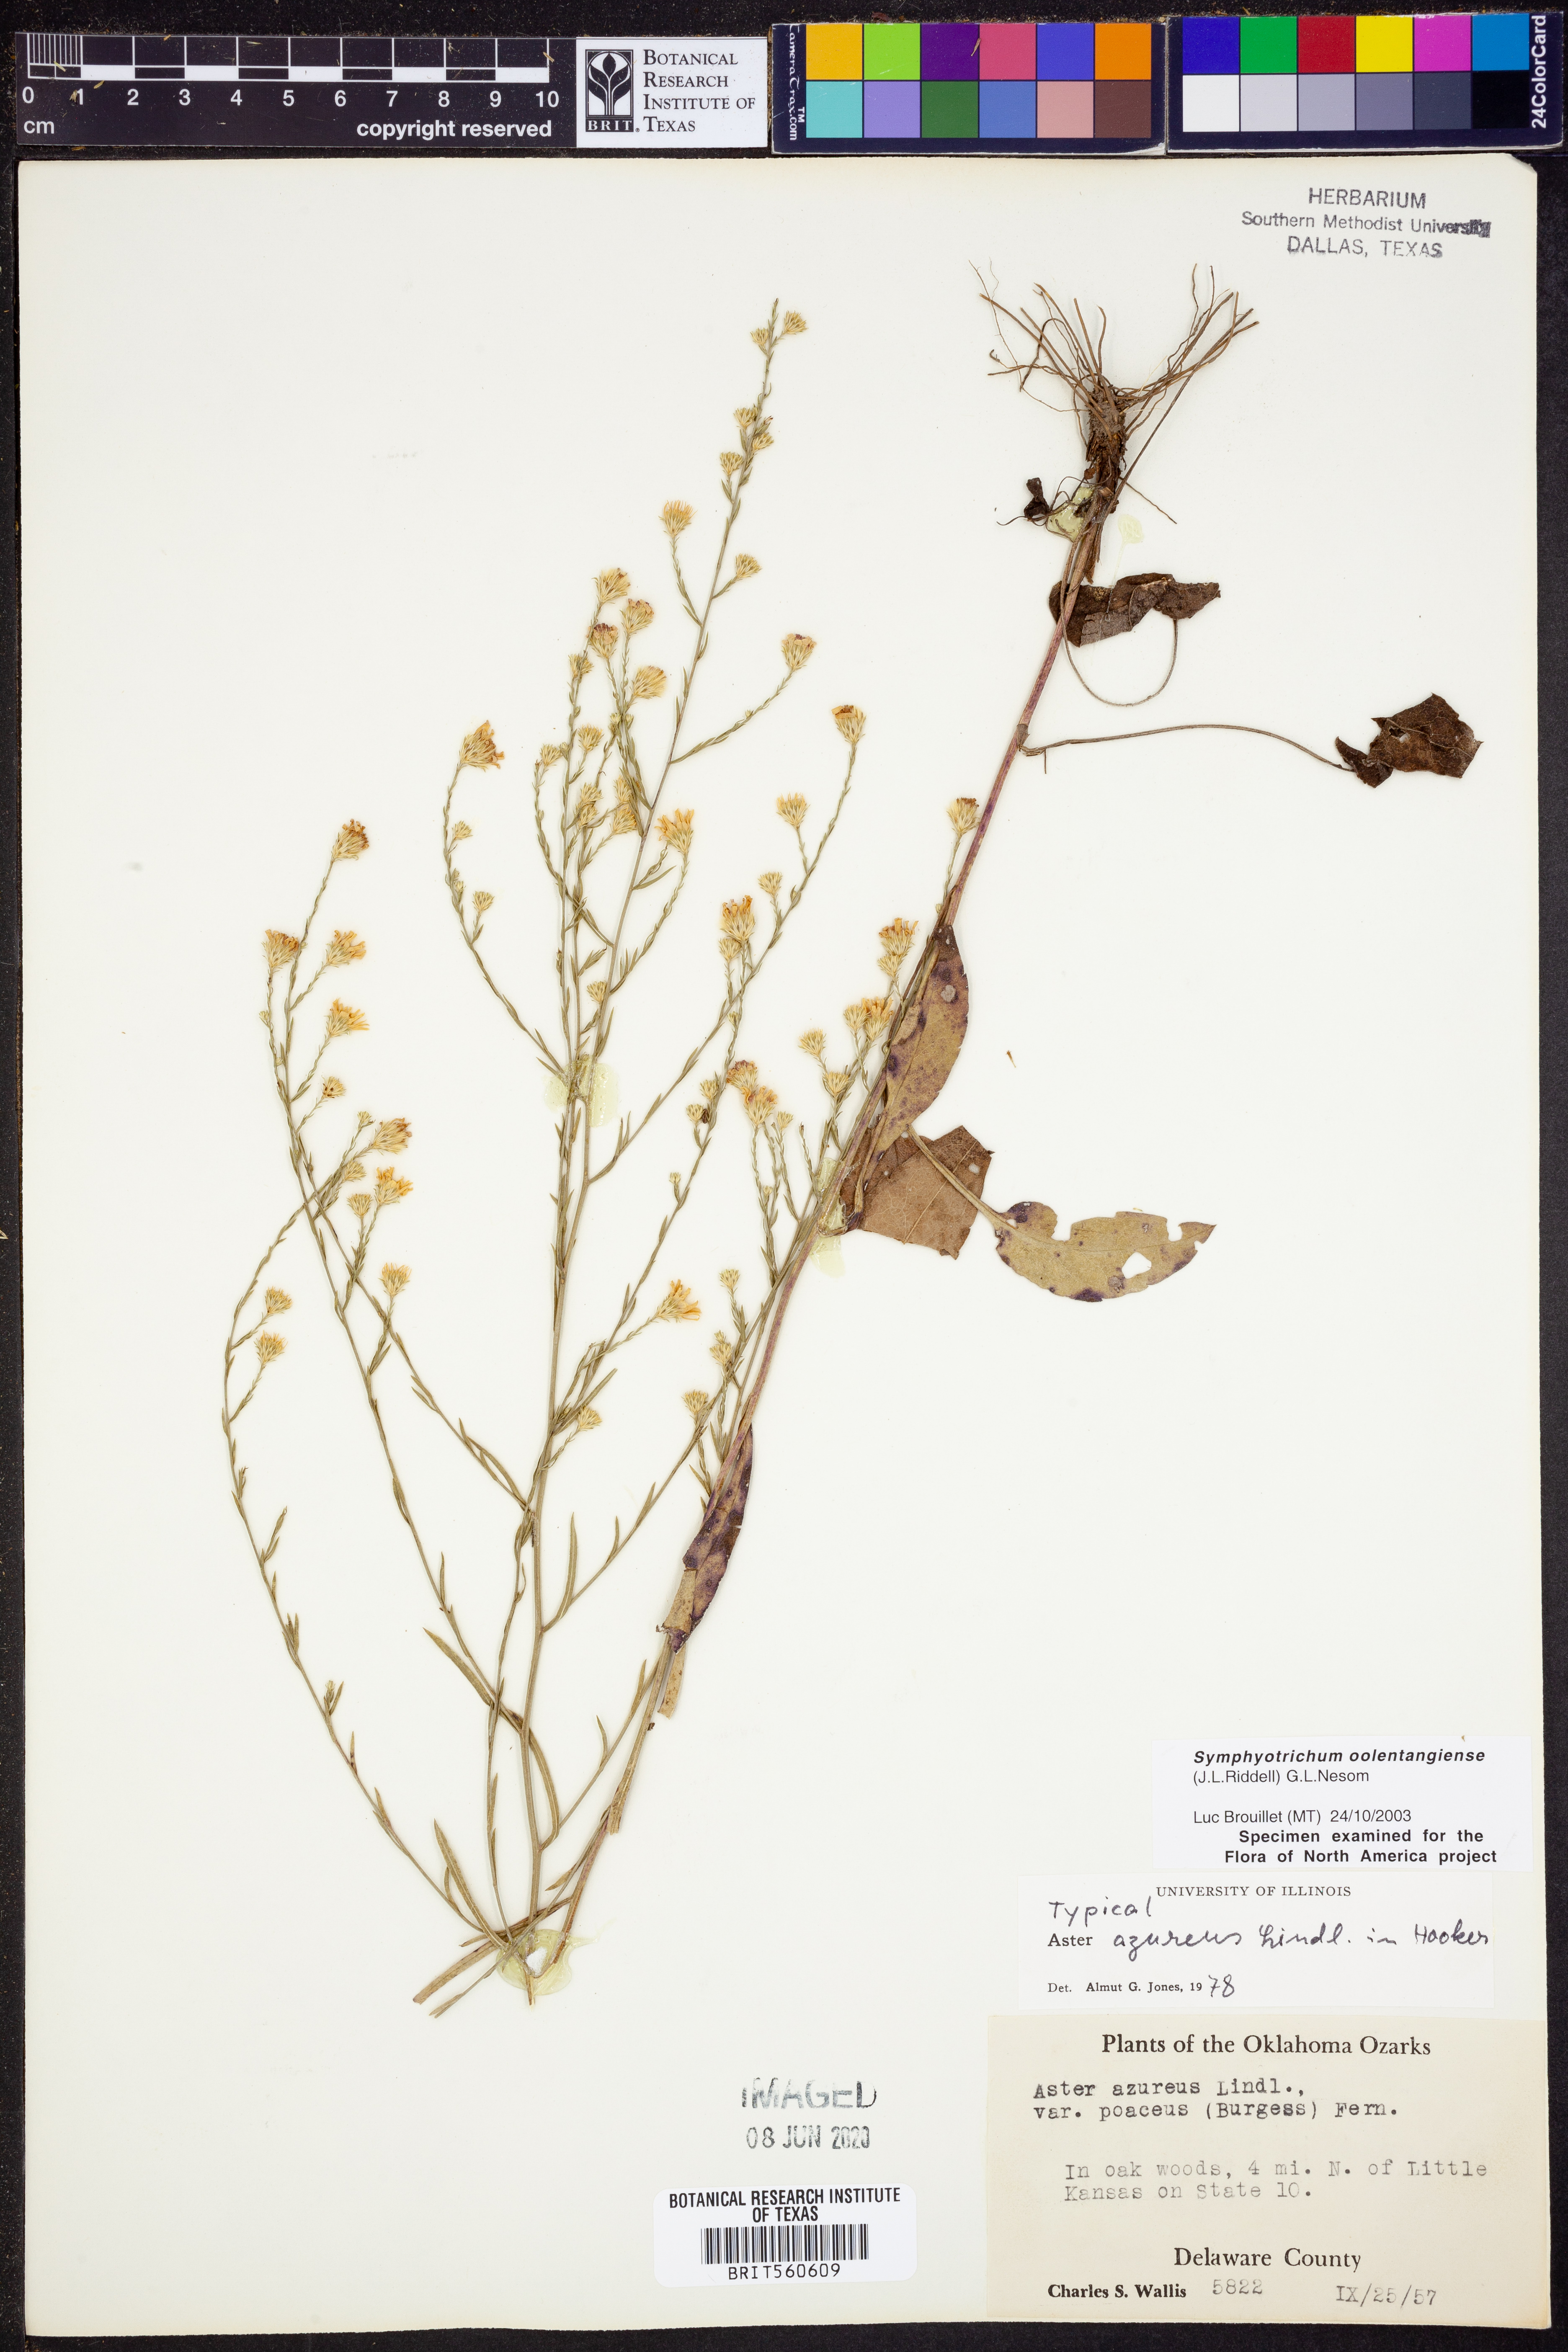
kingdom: Plantae
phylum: Tracheophyta
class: Magnoliopsida
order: Asterales
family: Asteraceae
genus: Symphyotrichum
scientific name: Symphyotrichum oolentangiense
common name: Azure aster
